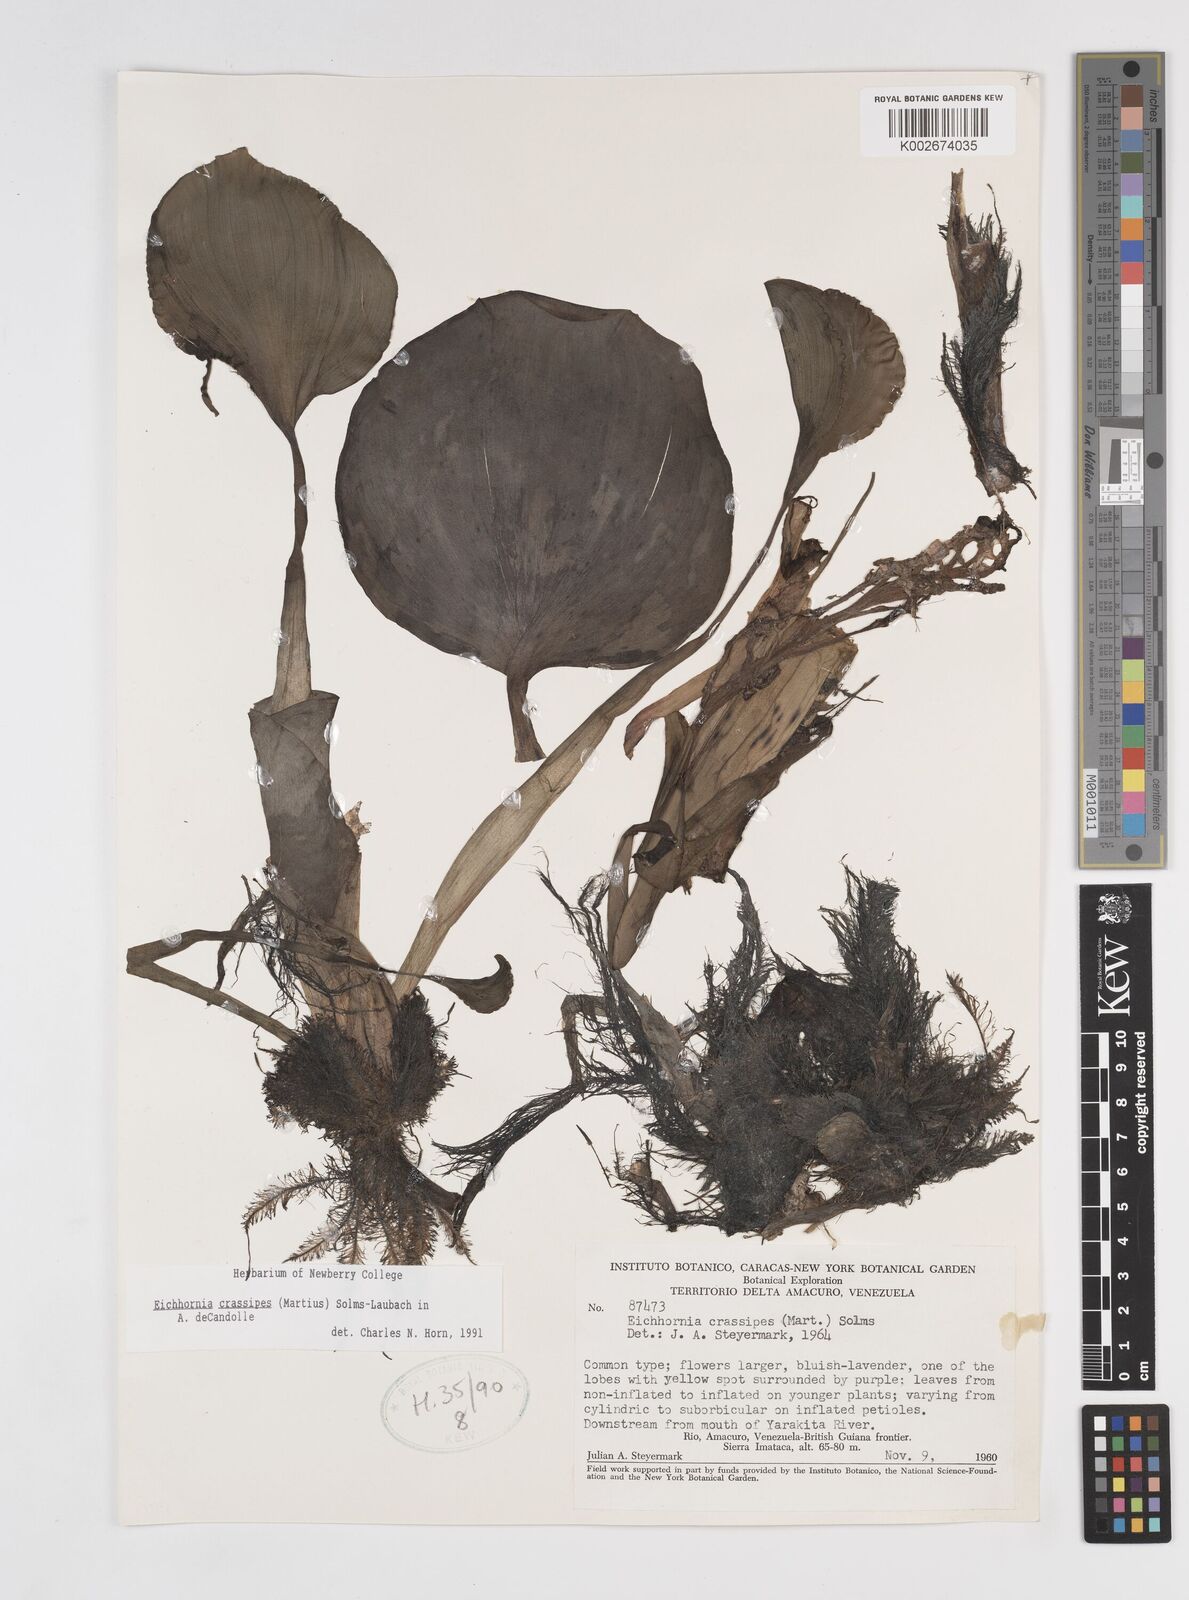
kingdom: Plantae
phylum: Tracheophyta
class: Liliopsida
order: Commelinales
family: Pontederiaceae
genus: Pontederia
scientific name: Pontederia crassipes
